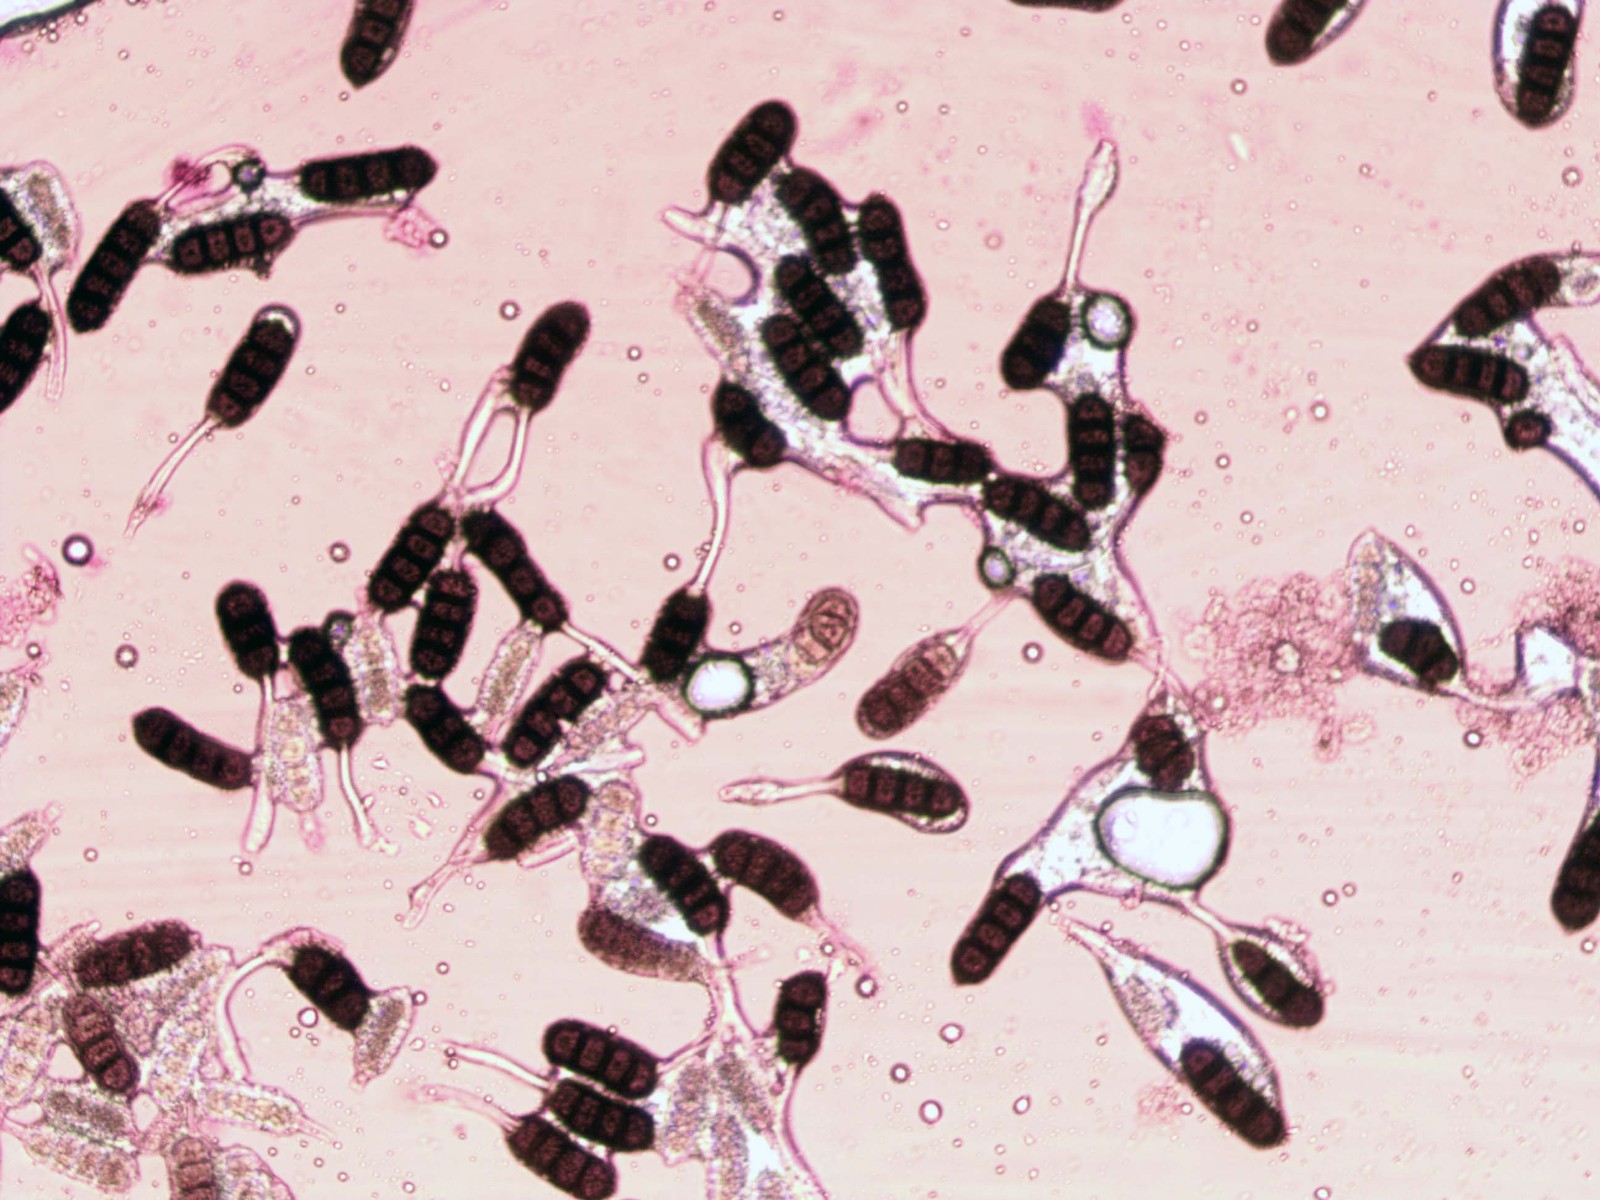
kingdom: Fungi
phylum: Basidiomycota
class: Pucciniomycetes
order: Pucciniales
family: Phragmidiaceae
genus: Phragmidium
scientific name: Phragmidium violaceum
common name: violet flercellerust
